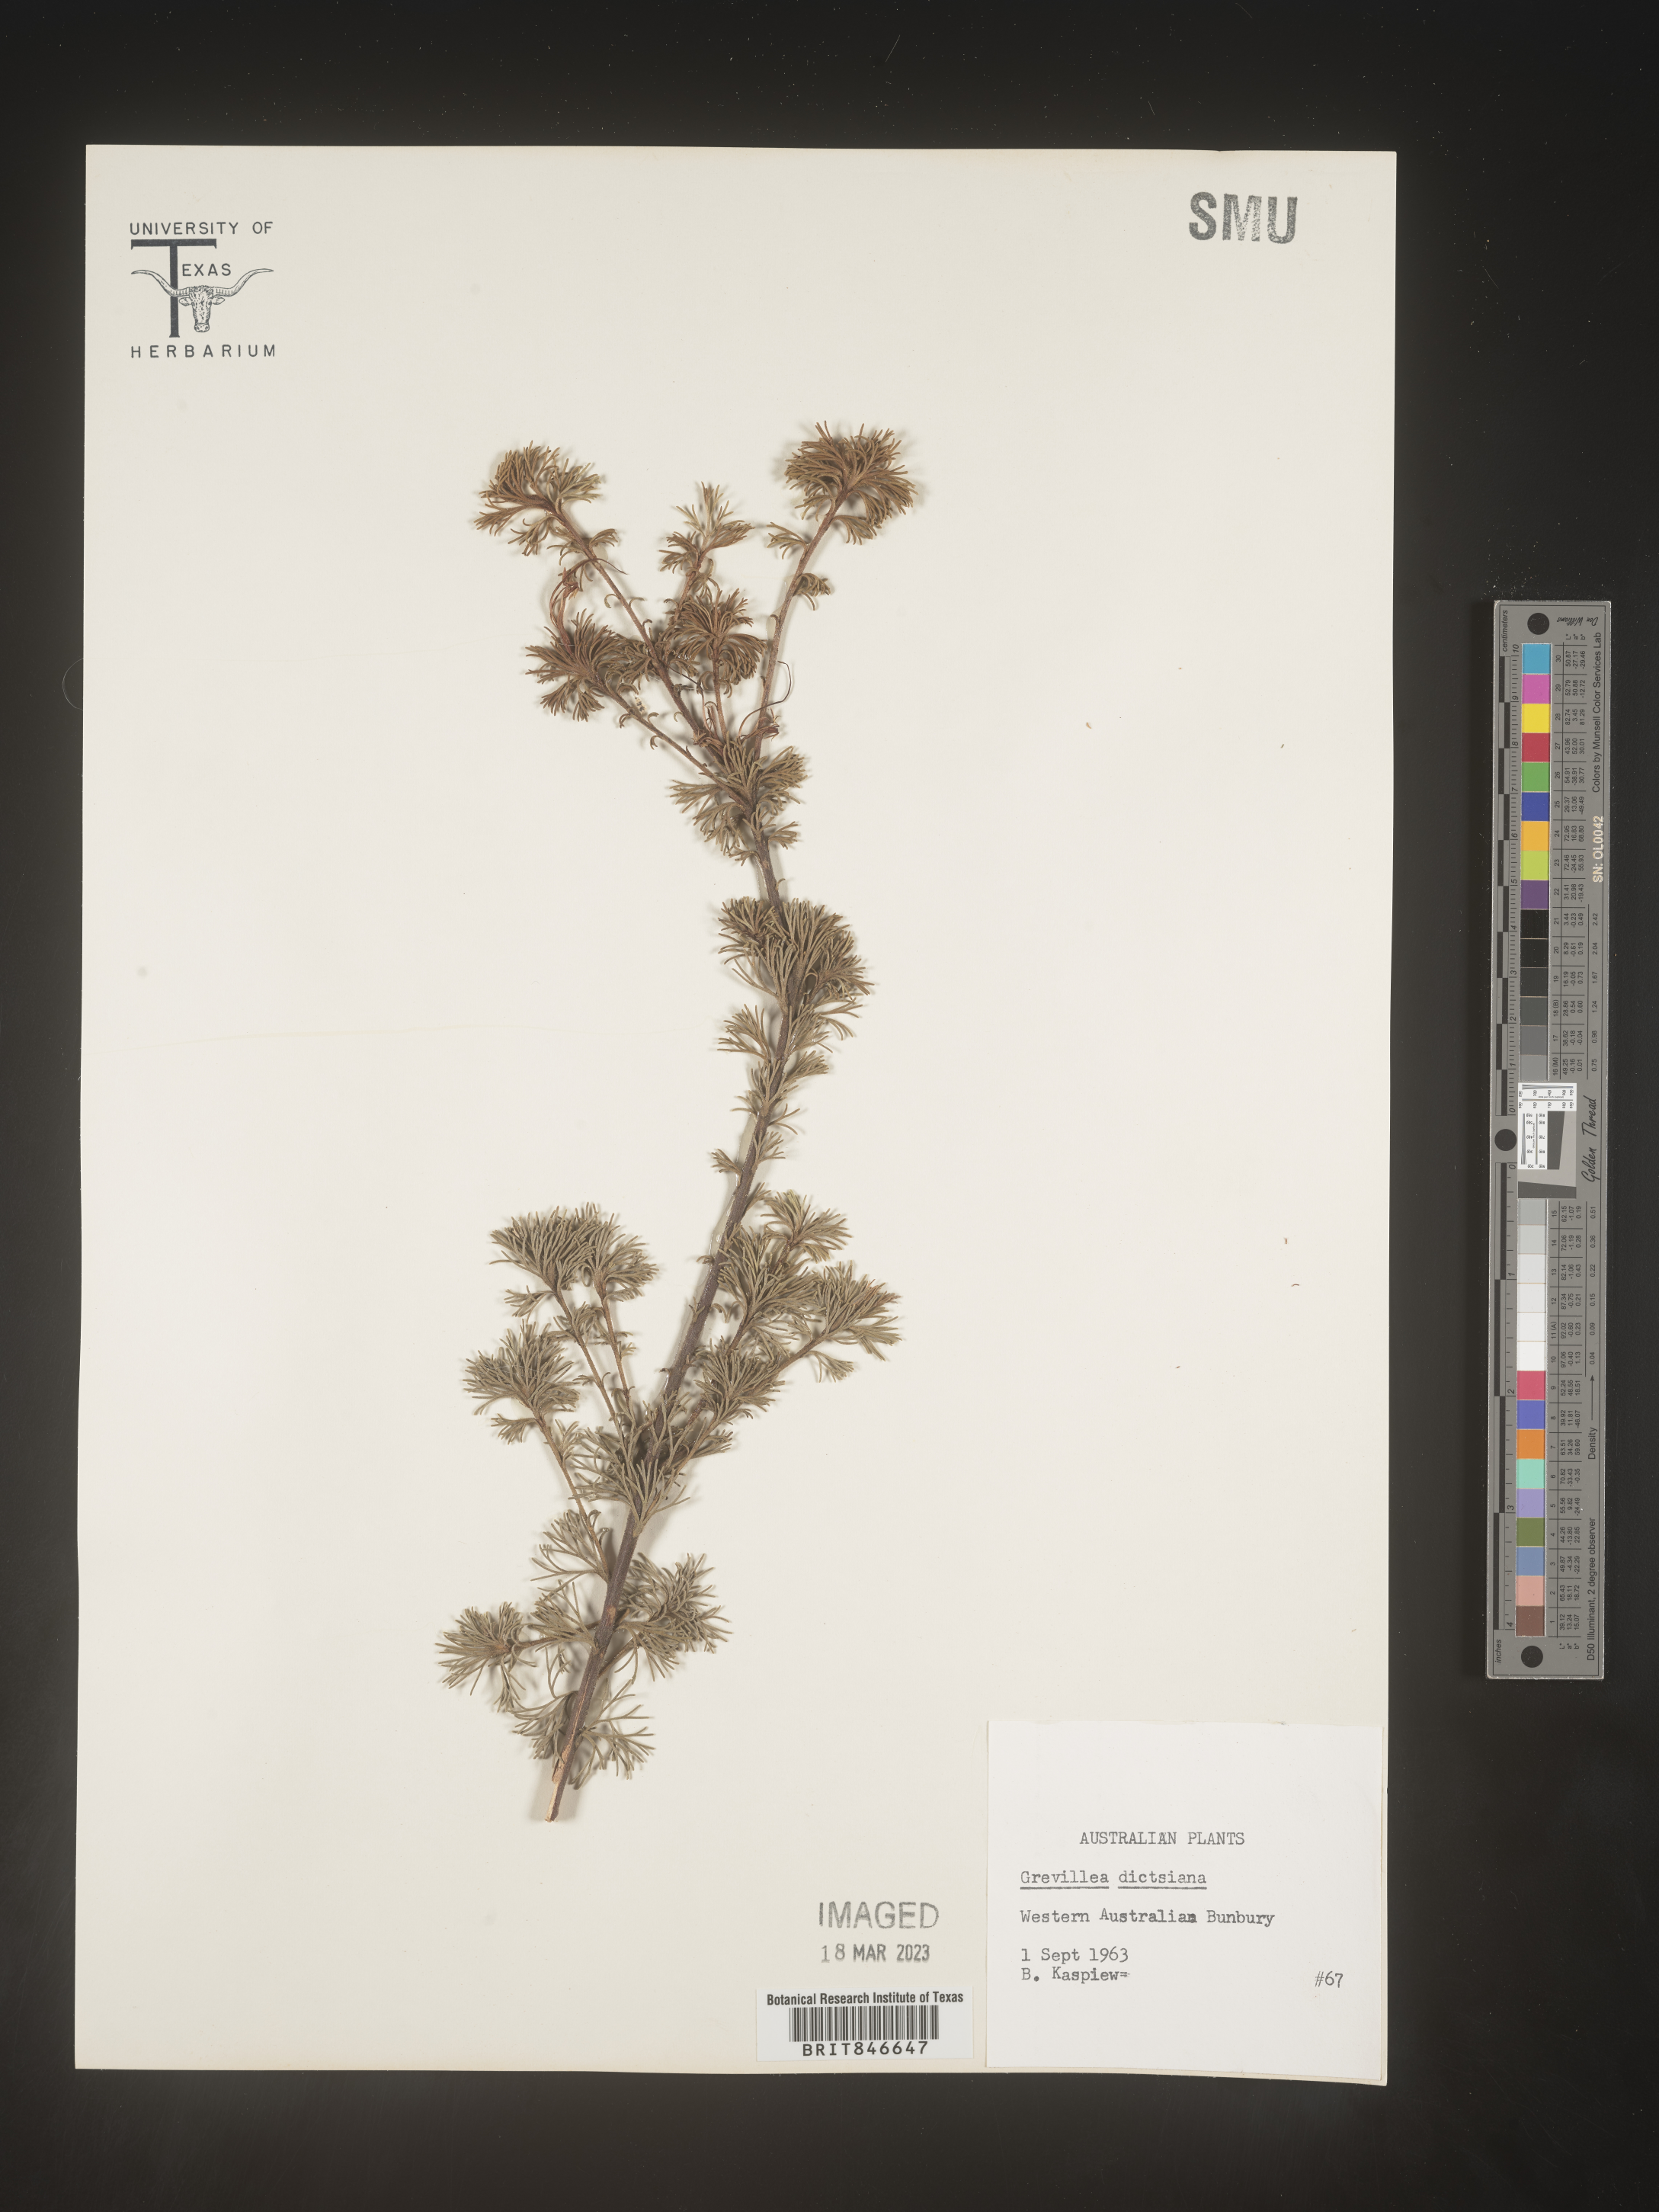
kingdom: Plantae
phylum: Tracheophyta
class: Magnoliopsida
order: Proteales
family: Proteaceae
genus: Grevillea
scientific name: Grevillea
